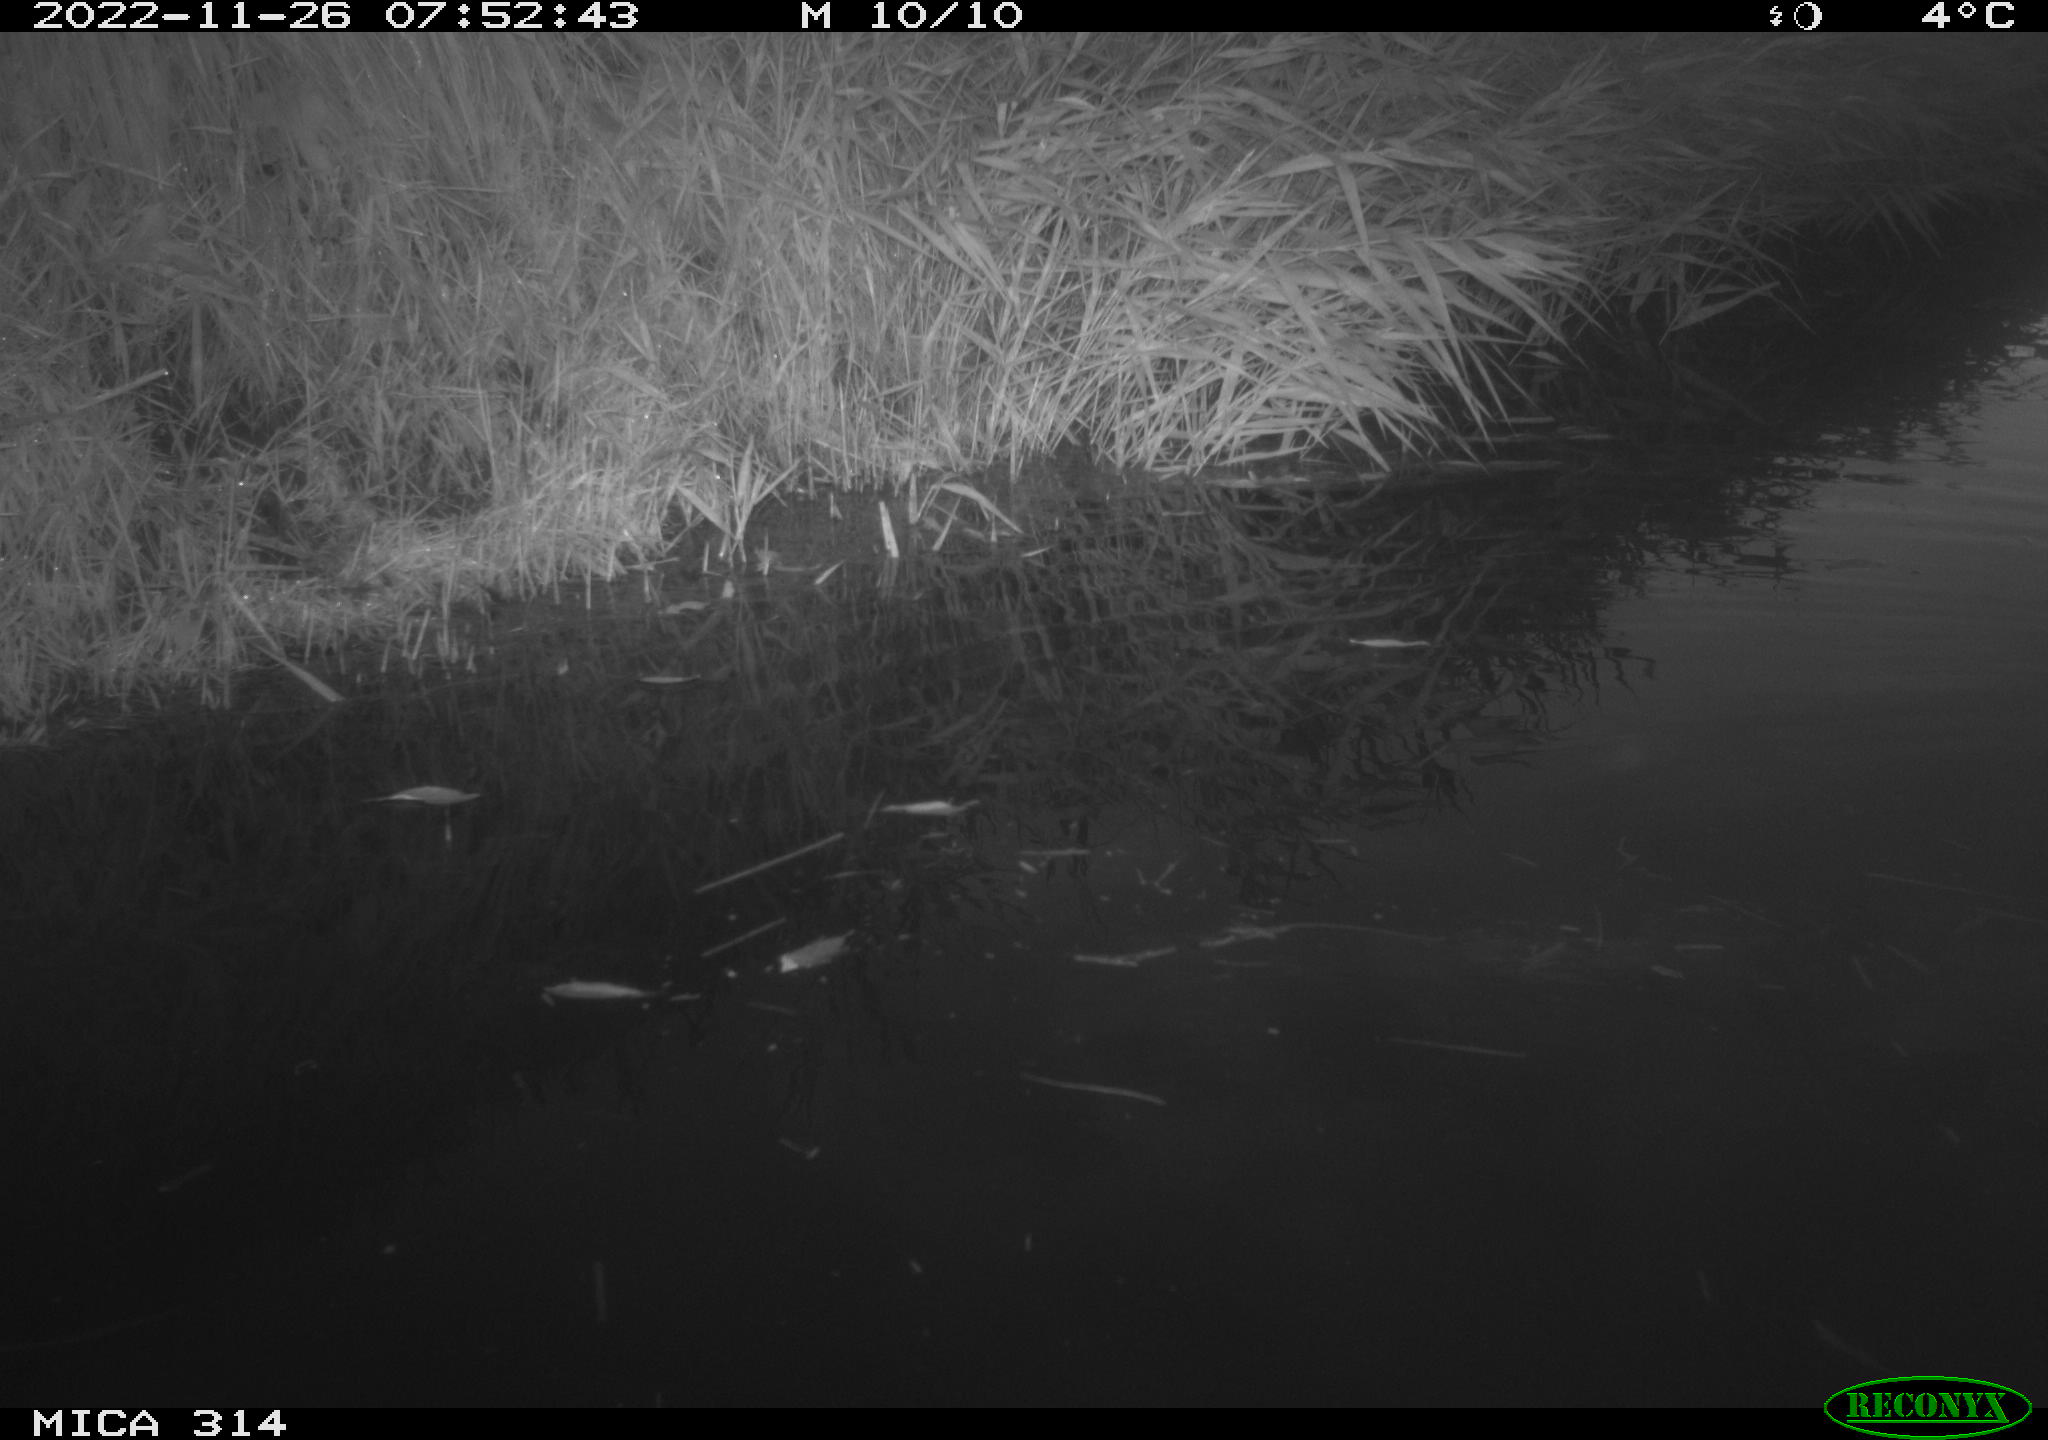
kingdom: Animalia
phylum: Chordata
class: Aves
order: Gruiformes
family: Rallidae
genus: Gallinula
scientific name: Gallinula chloropus
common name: Common moorhen
